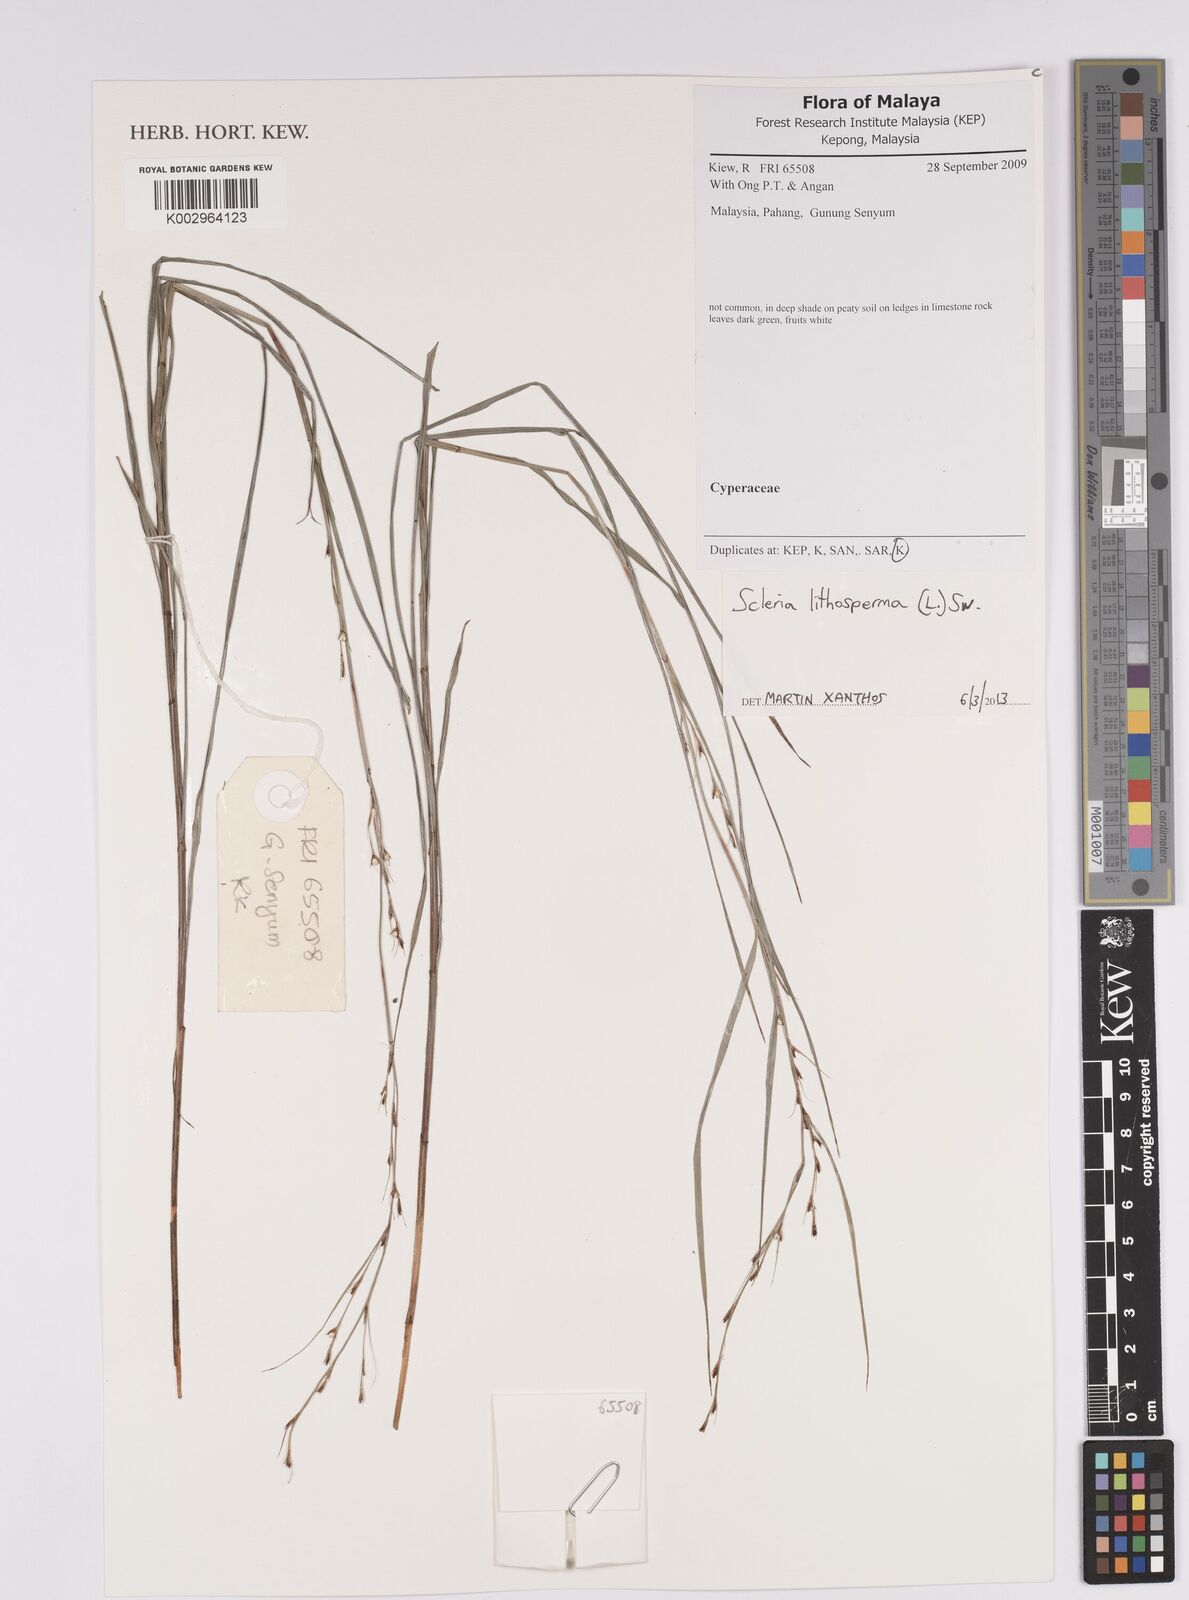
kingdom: Plantae
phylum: Tracheophyta
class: Liliopsida
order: Poales
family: Cyperaceae
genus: Scleria
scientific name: Scleria lithosperma
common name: Florida keys nut-rush
